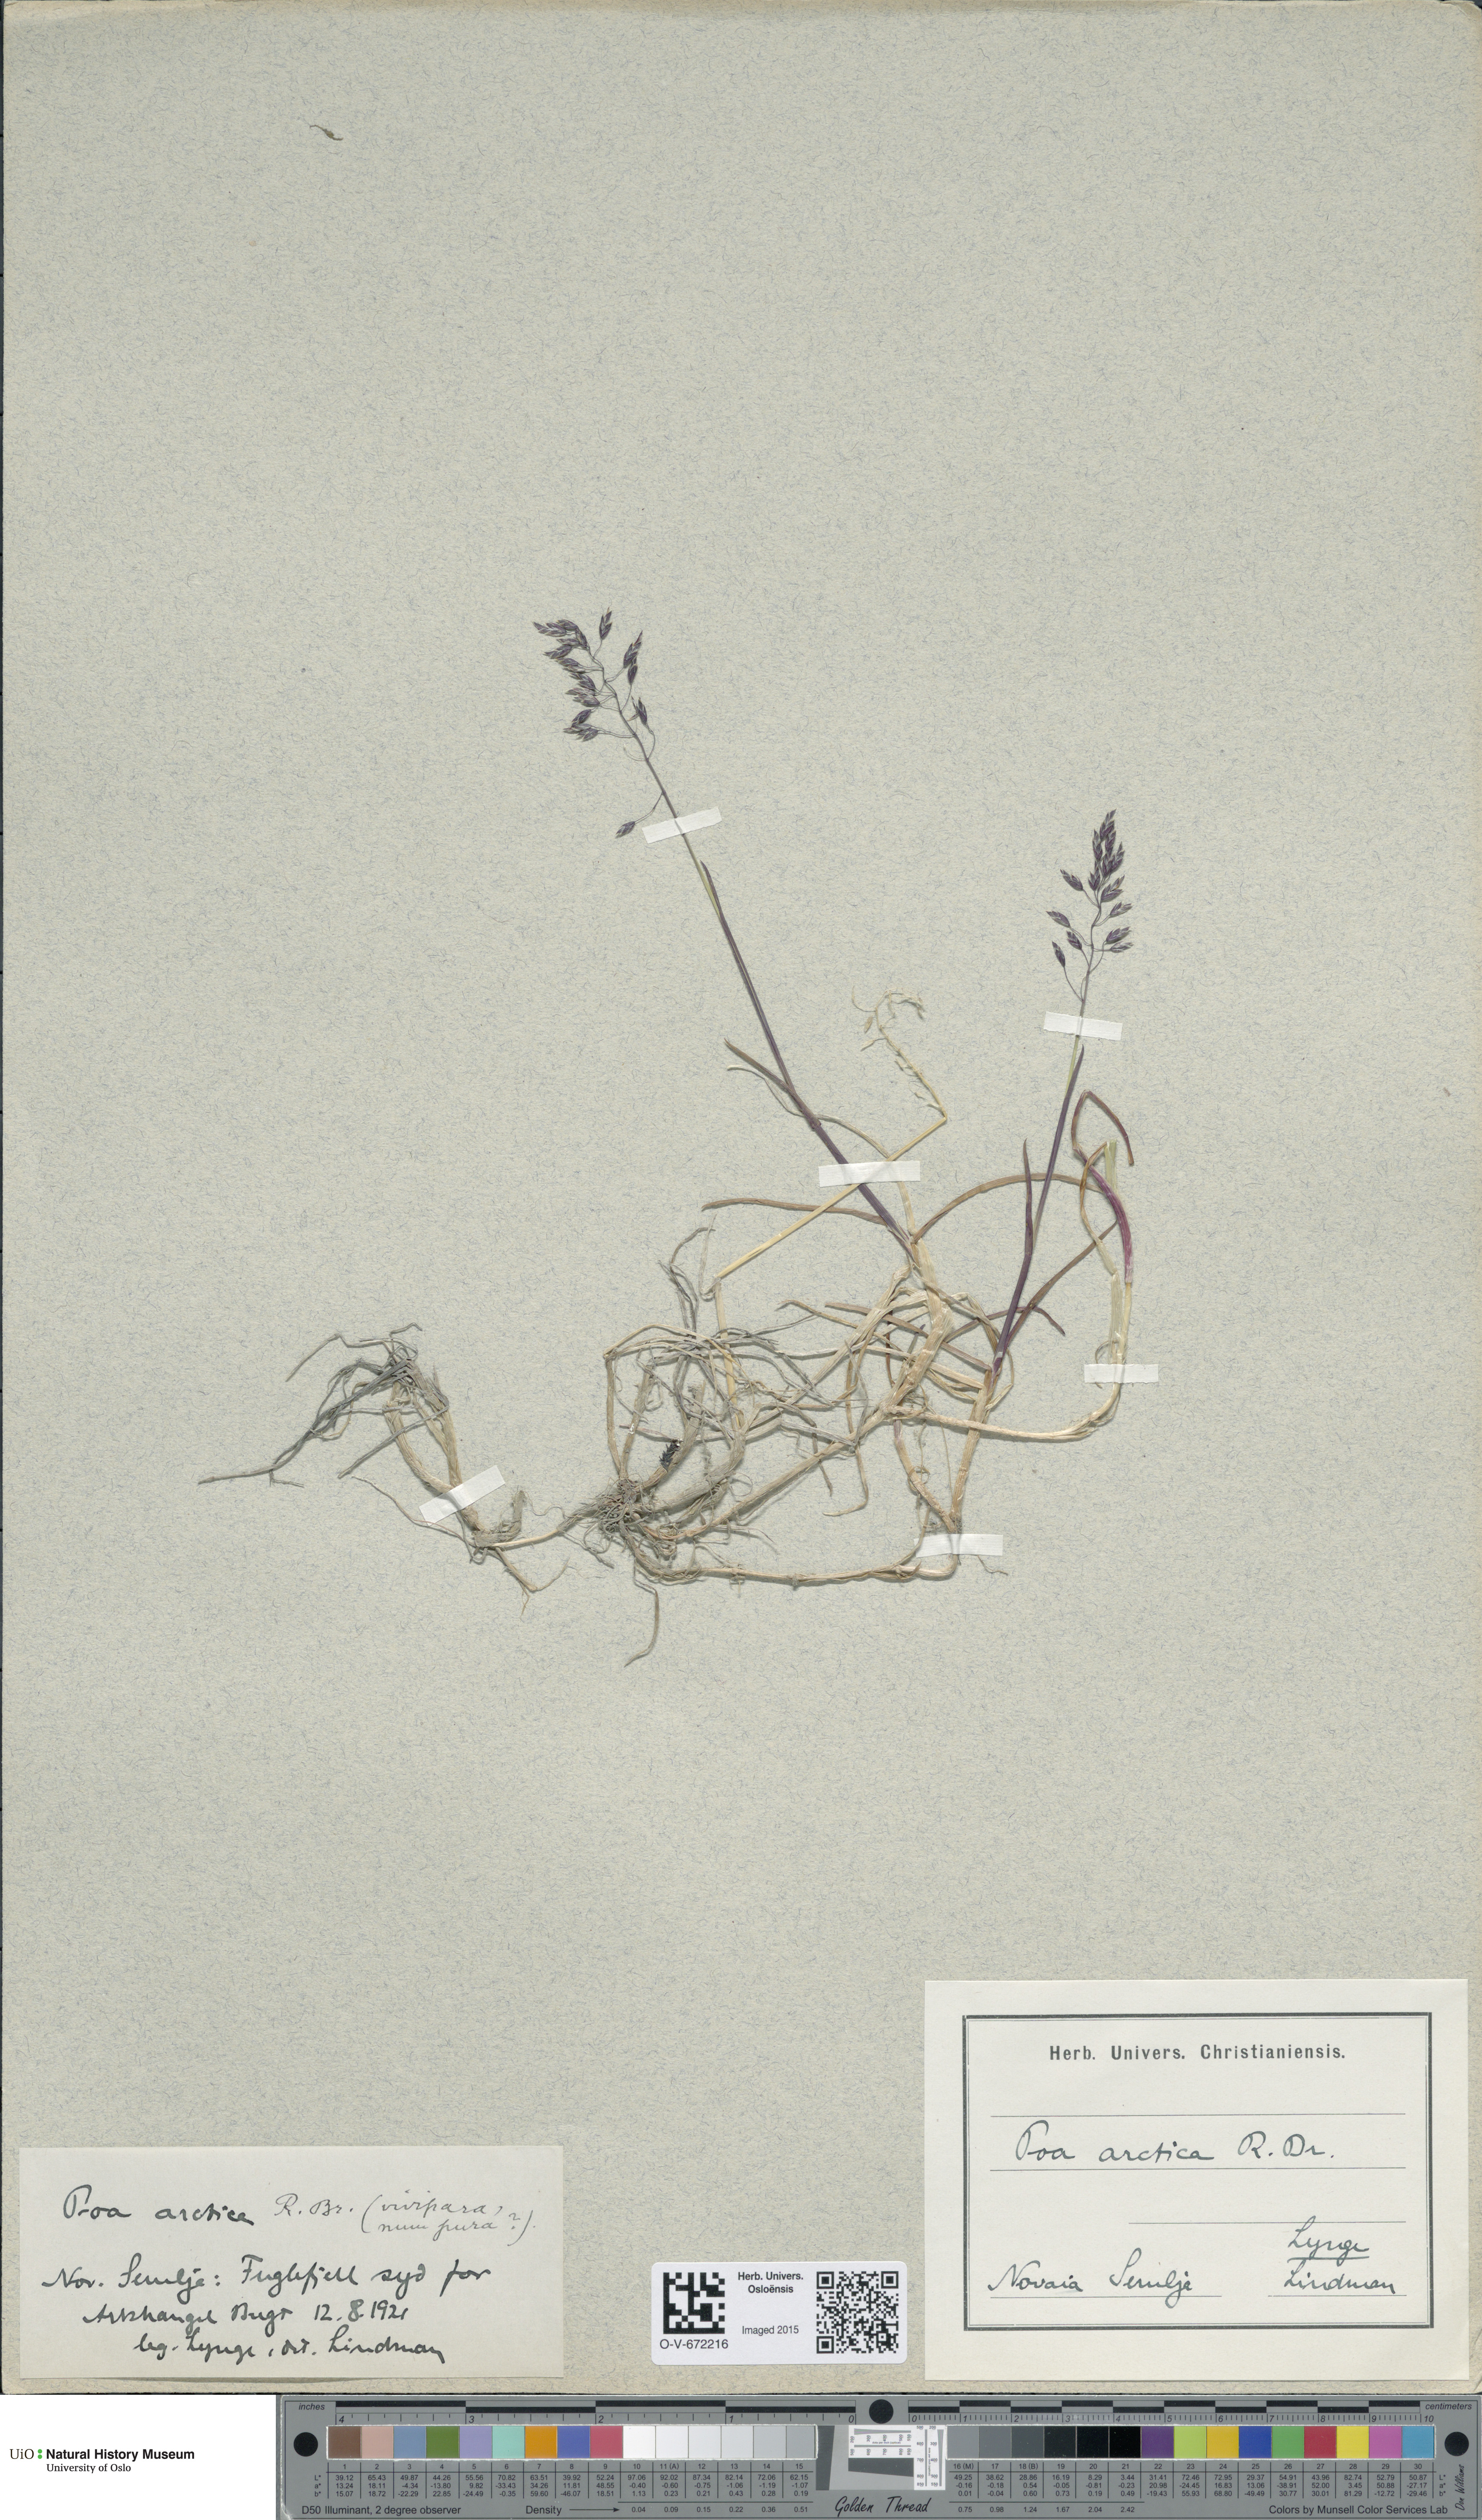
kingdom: Plantae
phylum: Tracheophyta
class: Liliopsida
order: Poales
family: Poaceae
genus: Poa
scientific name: Poa arctica
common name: Arctic bluegrass
